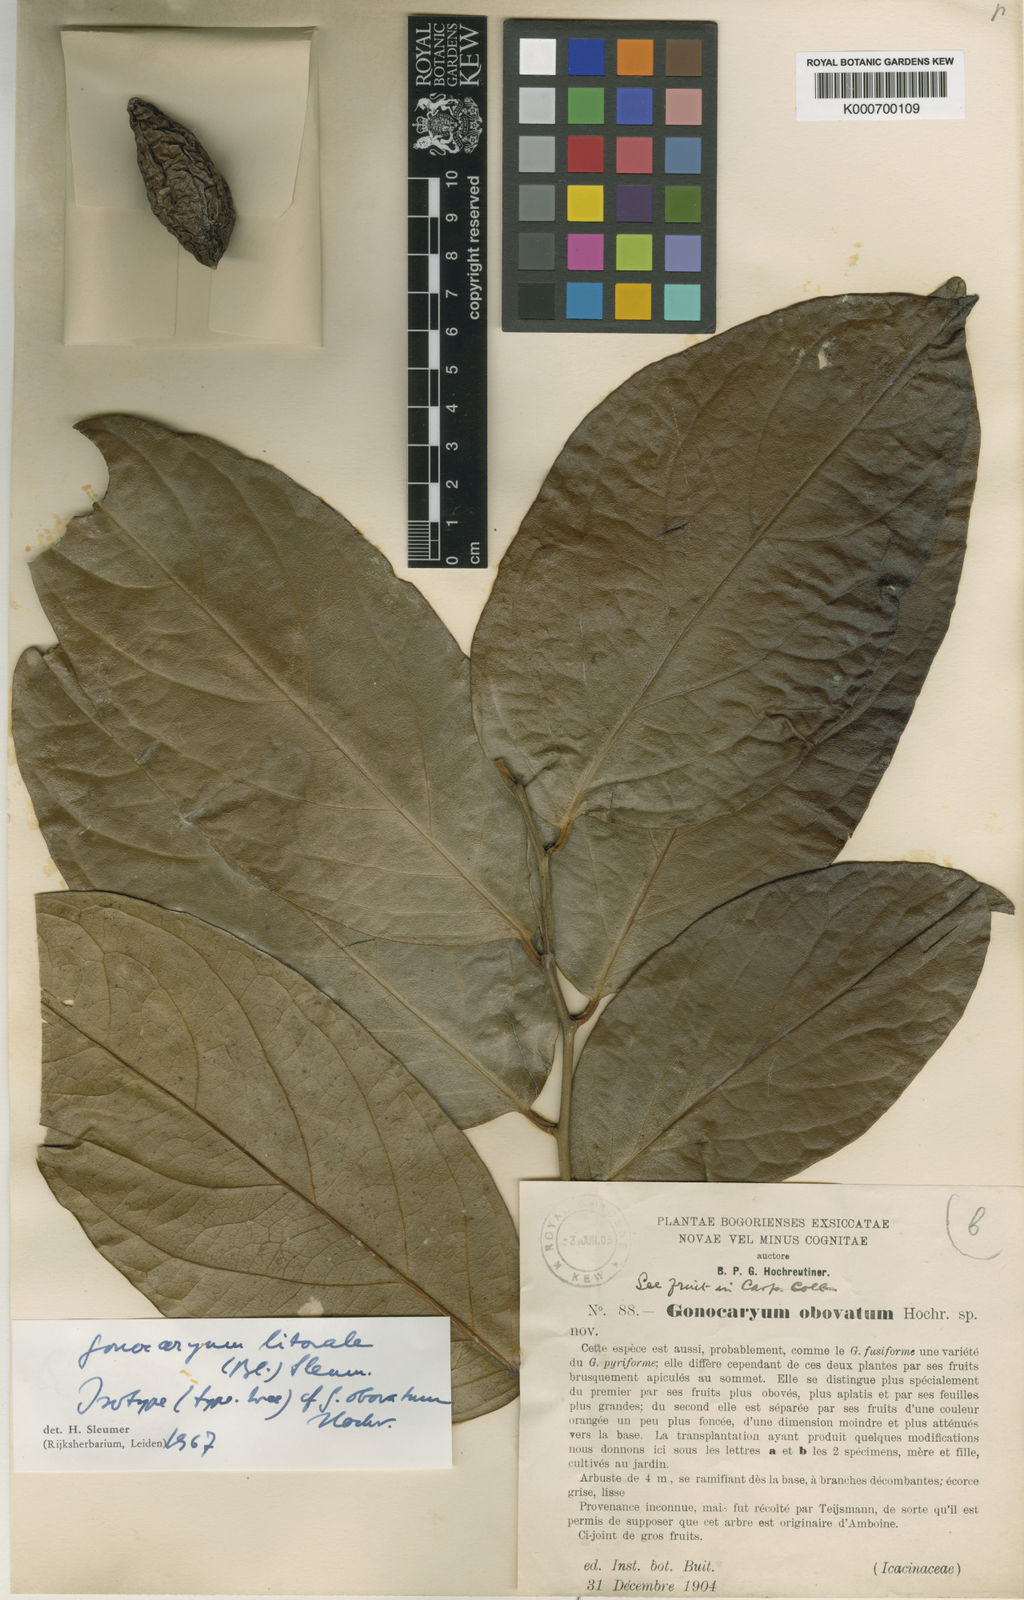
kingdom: Plantae
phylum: Tracheophyta
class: Magnoliopsida
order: Cardiopteridales
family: Cardiopteridaceae
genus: Gonocaryum
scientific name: Gonocaryum litorale
